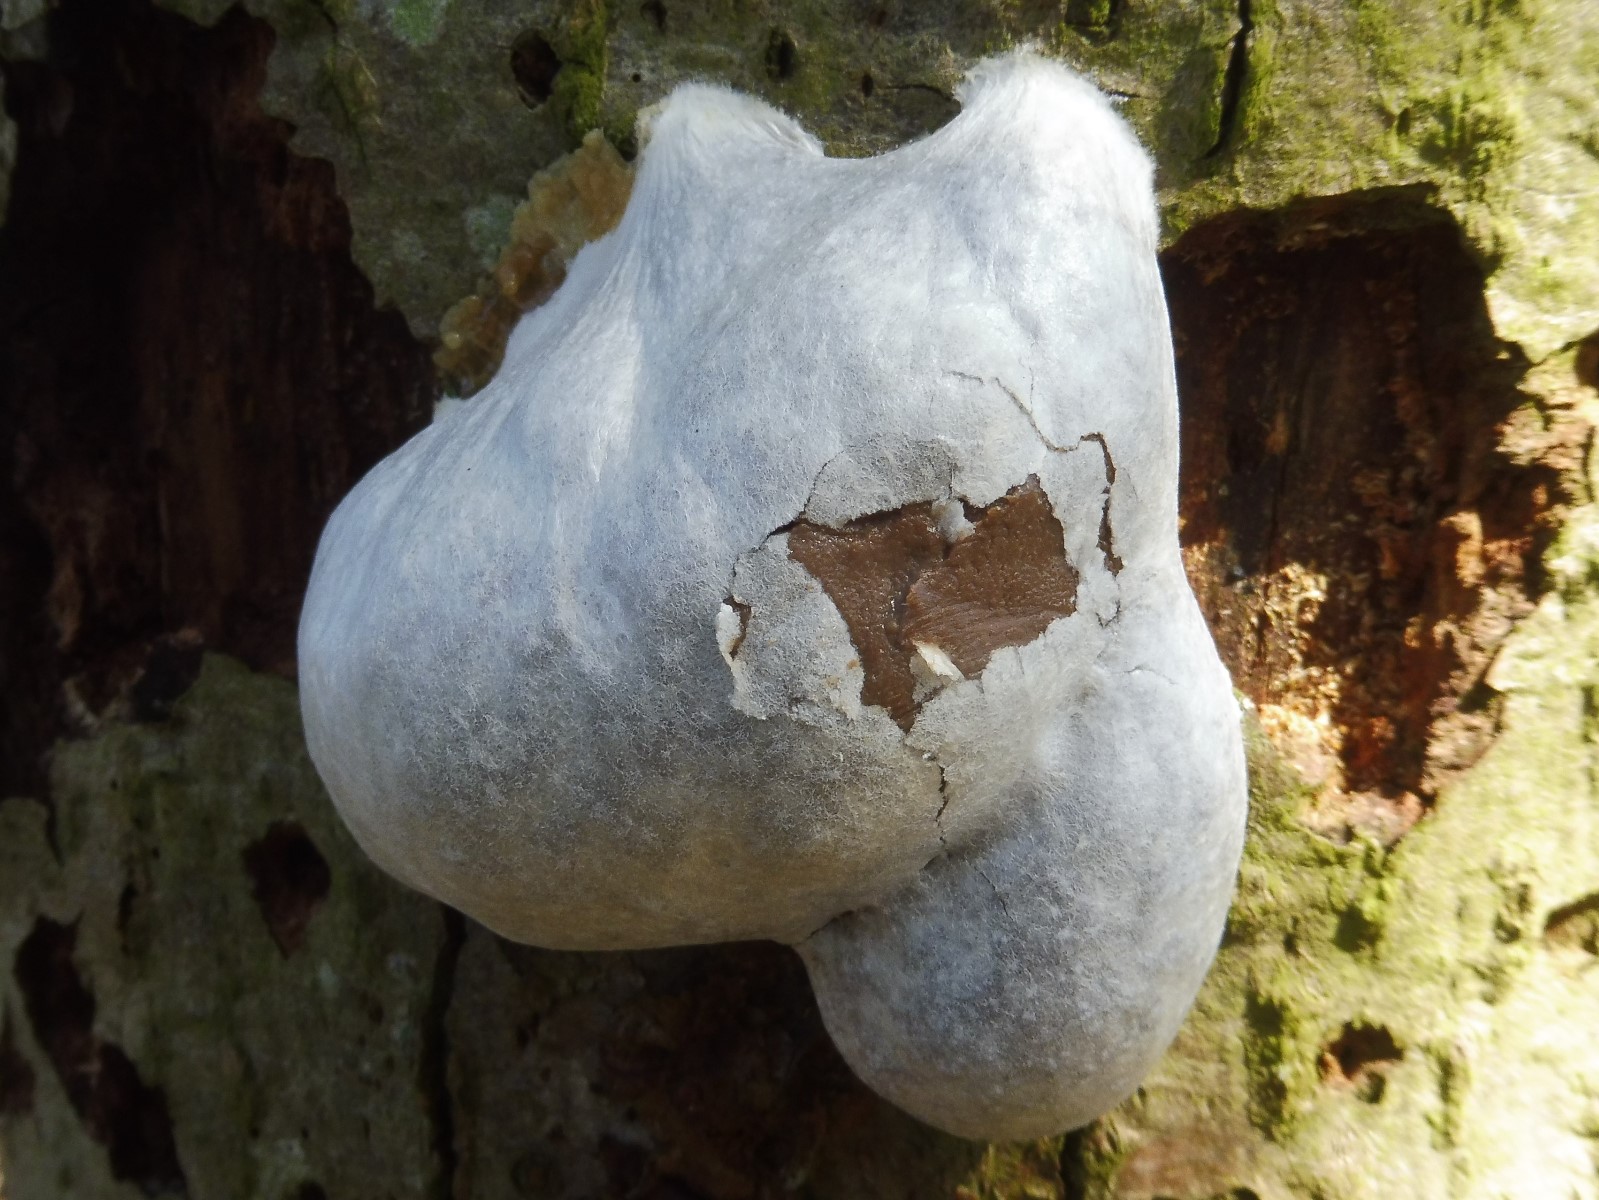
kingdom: Protozoa
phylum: Mycetozoa
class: Myxomycetes
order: Cribrariales
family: Tubiferaceae
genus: Reticularia
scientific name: Reticularia lycoperdon
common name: skinnende støvpude
